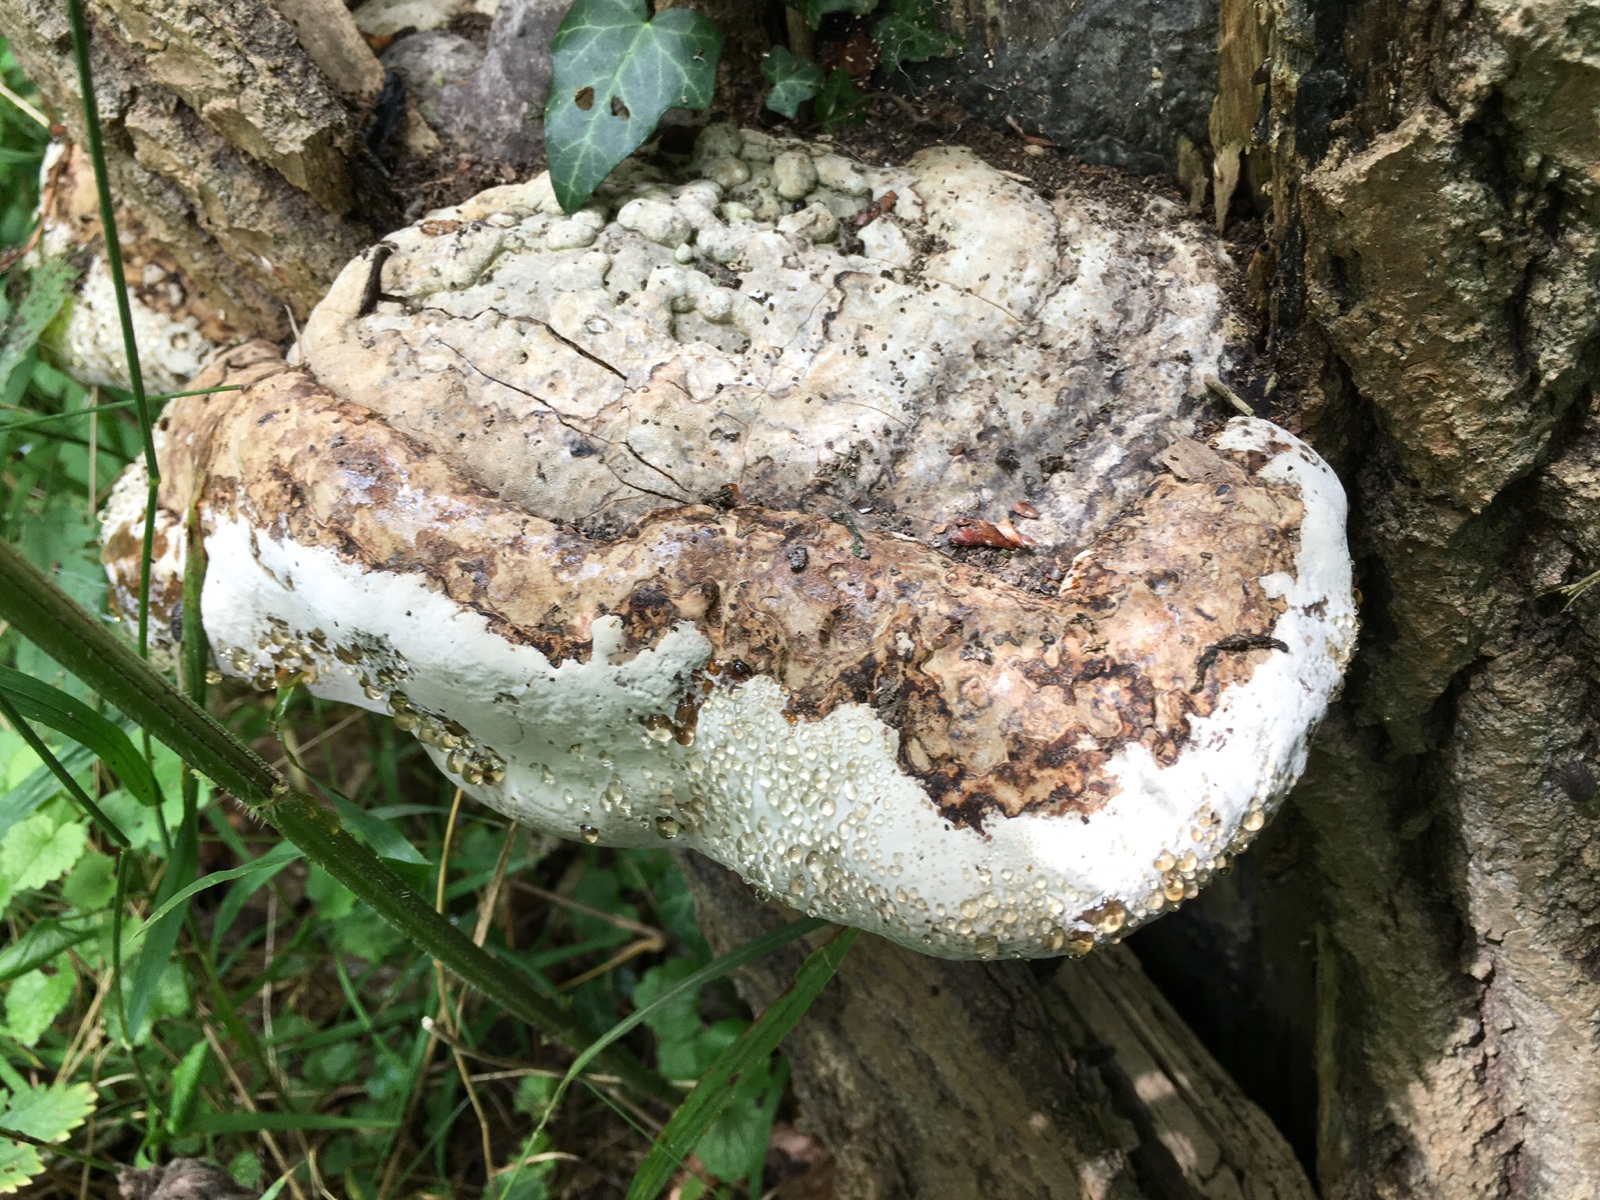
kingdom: Fungi
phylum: Basidiomycota
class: Agaricomycetes
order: Polyporales
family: Polyporaceae
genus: Fomes
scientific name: Fomes fomentarius
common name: tøndersvamp
